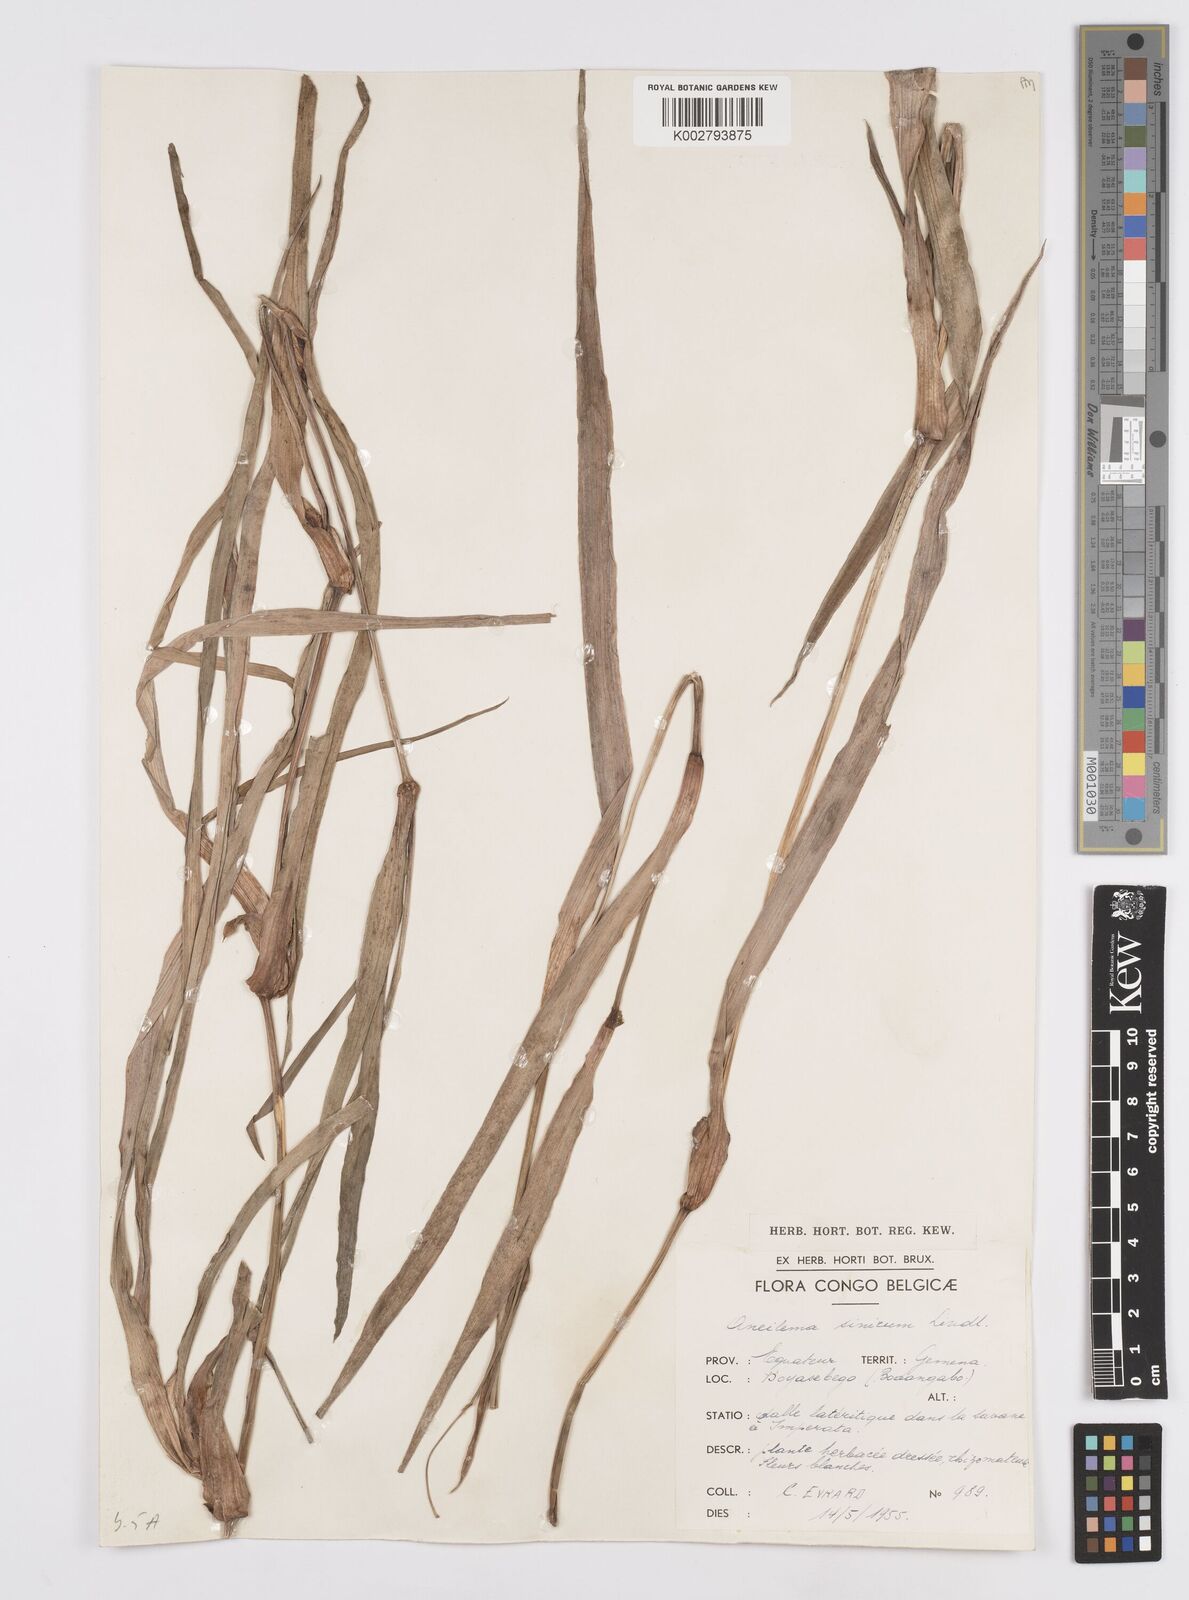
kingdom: Plantae
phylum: Tracheophyta
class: Liliopsida
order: Commelinales
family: Commelinaceae
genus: Murdannia
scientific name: Murdannia simplex
